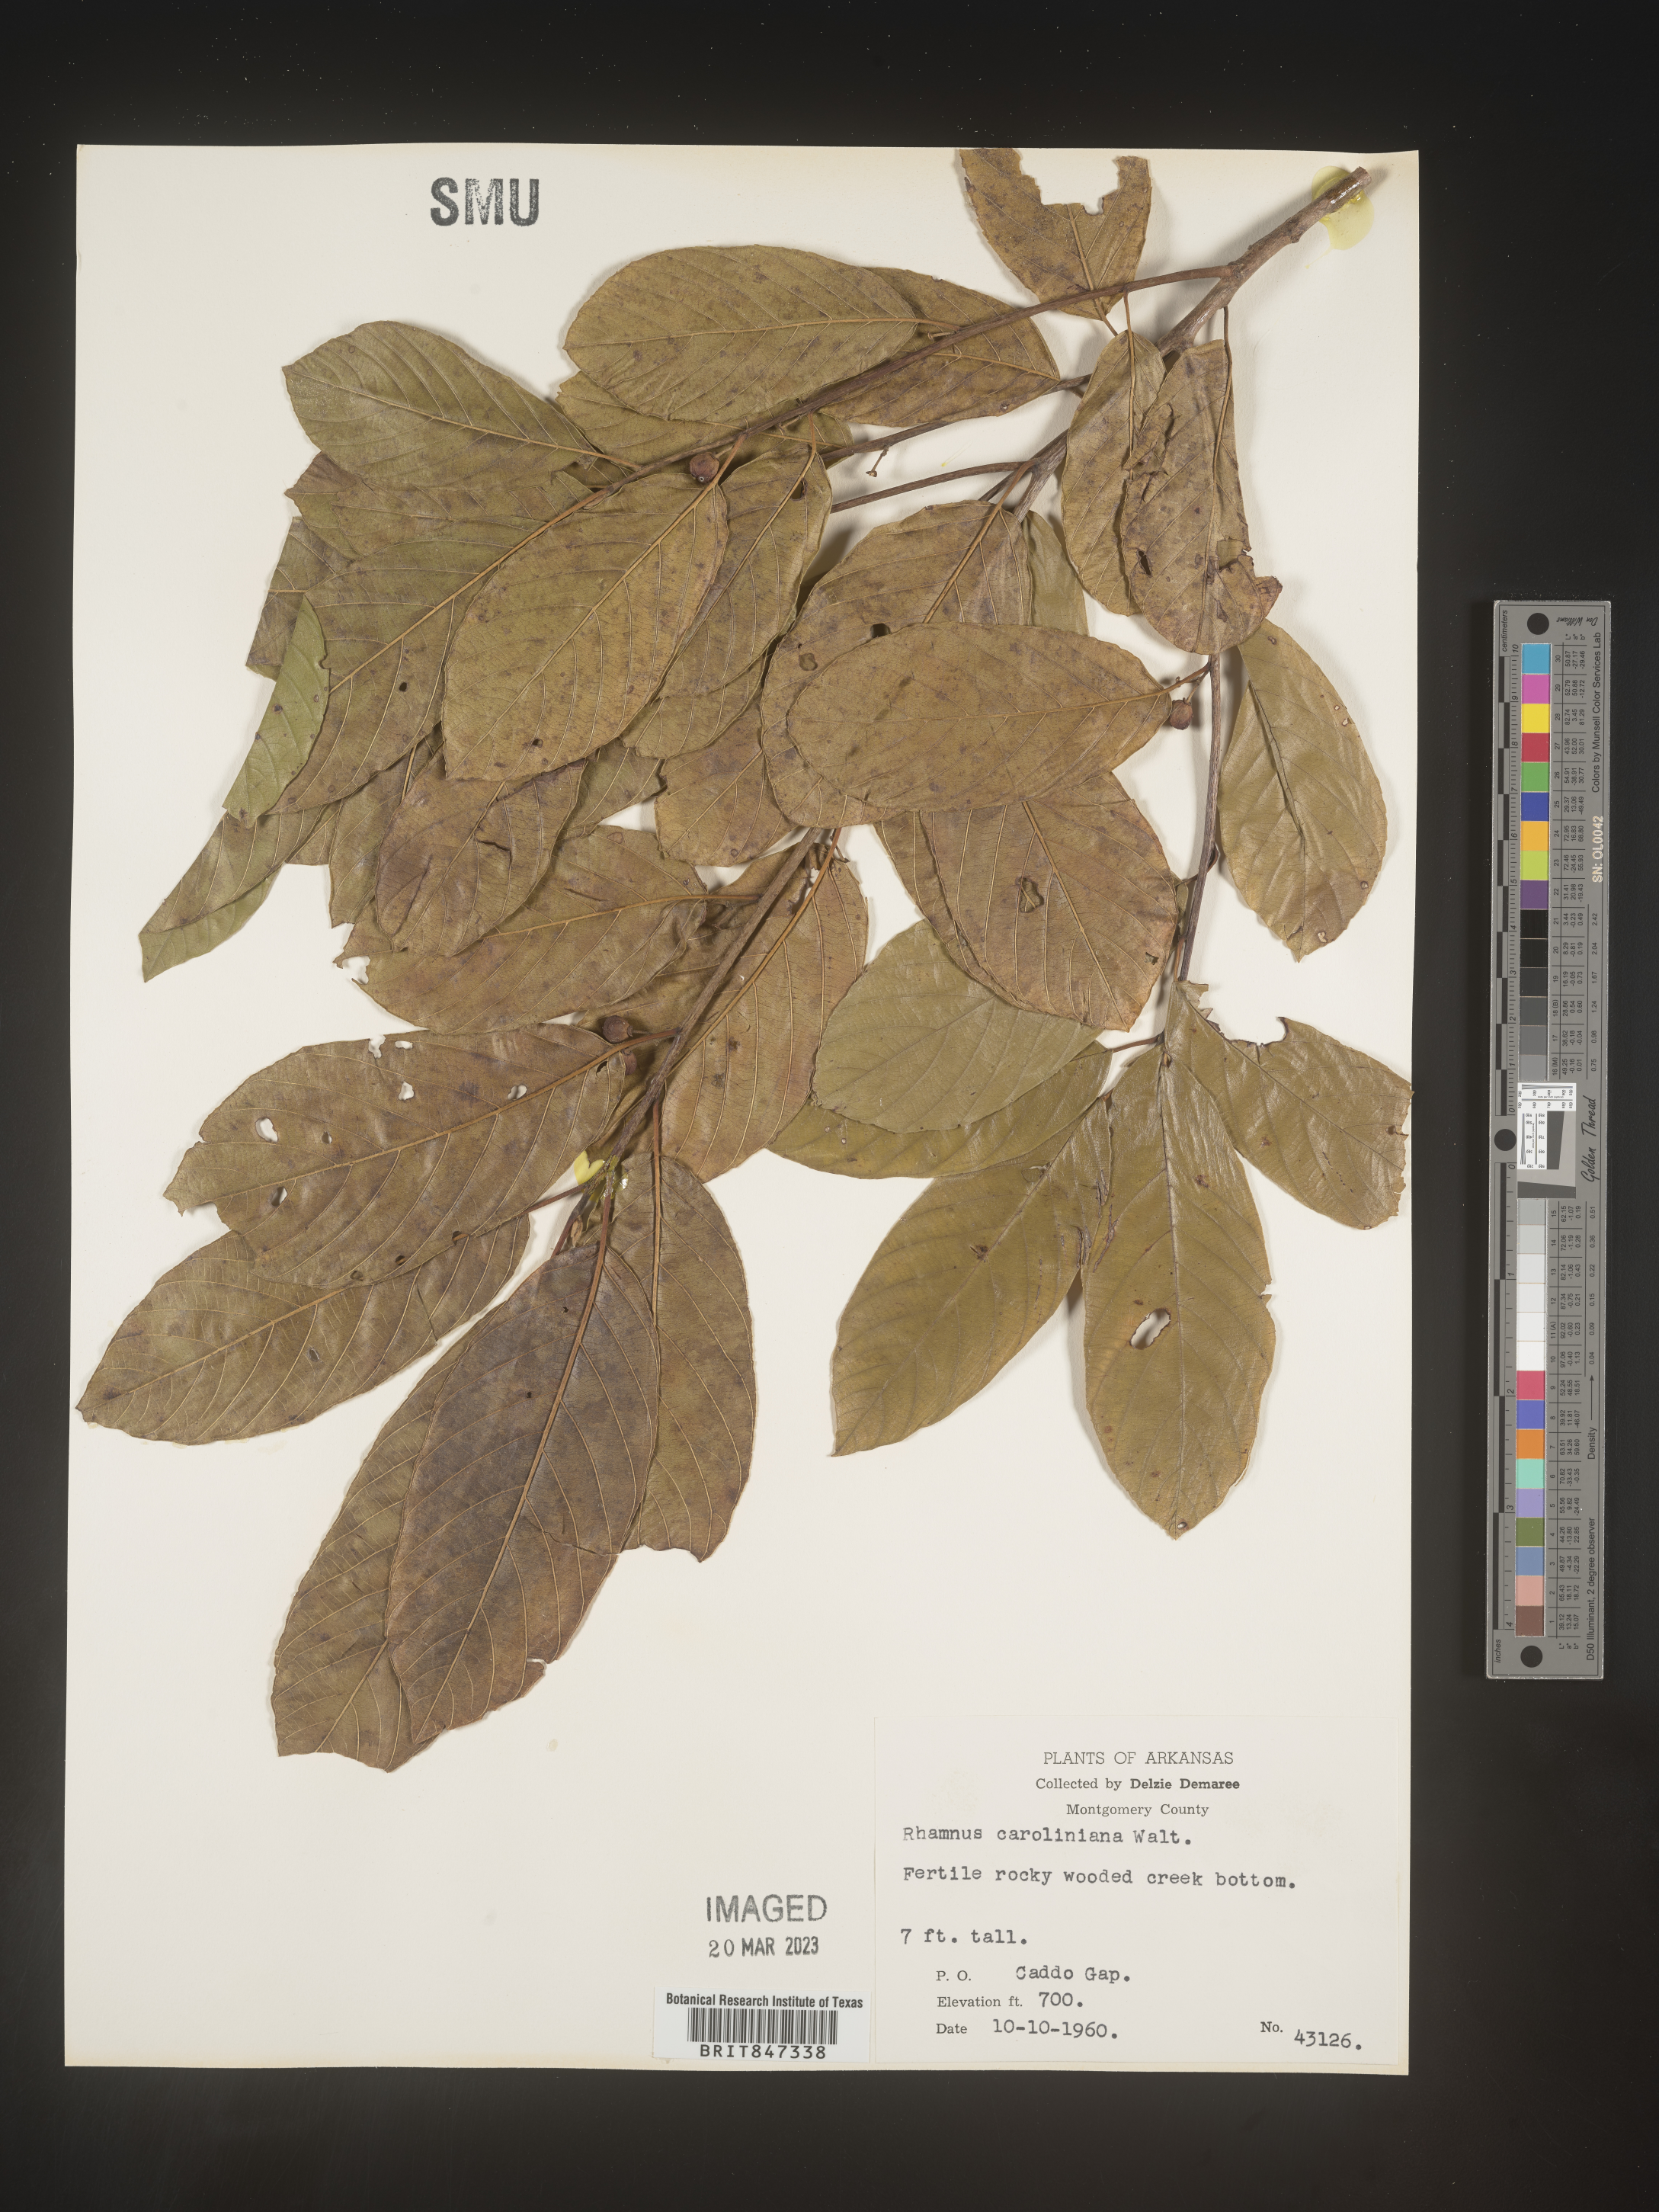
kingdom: Plantae
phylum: Tracheophyta
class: Magnoliopsida
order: Rosales
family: Rhamnaceae
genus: Frangula
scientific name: Frangula caroliniana
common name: Carolina buckthorn
